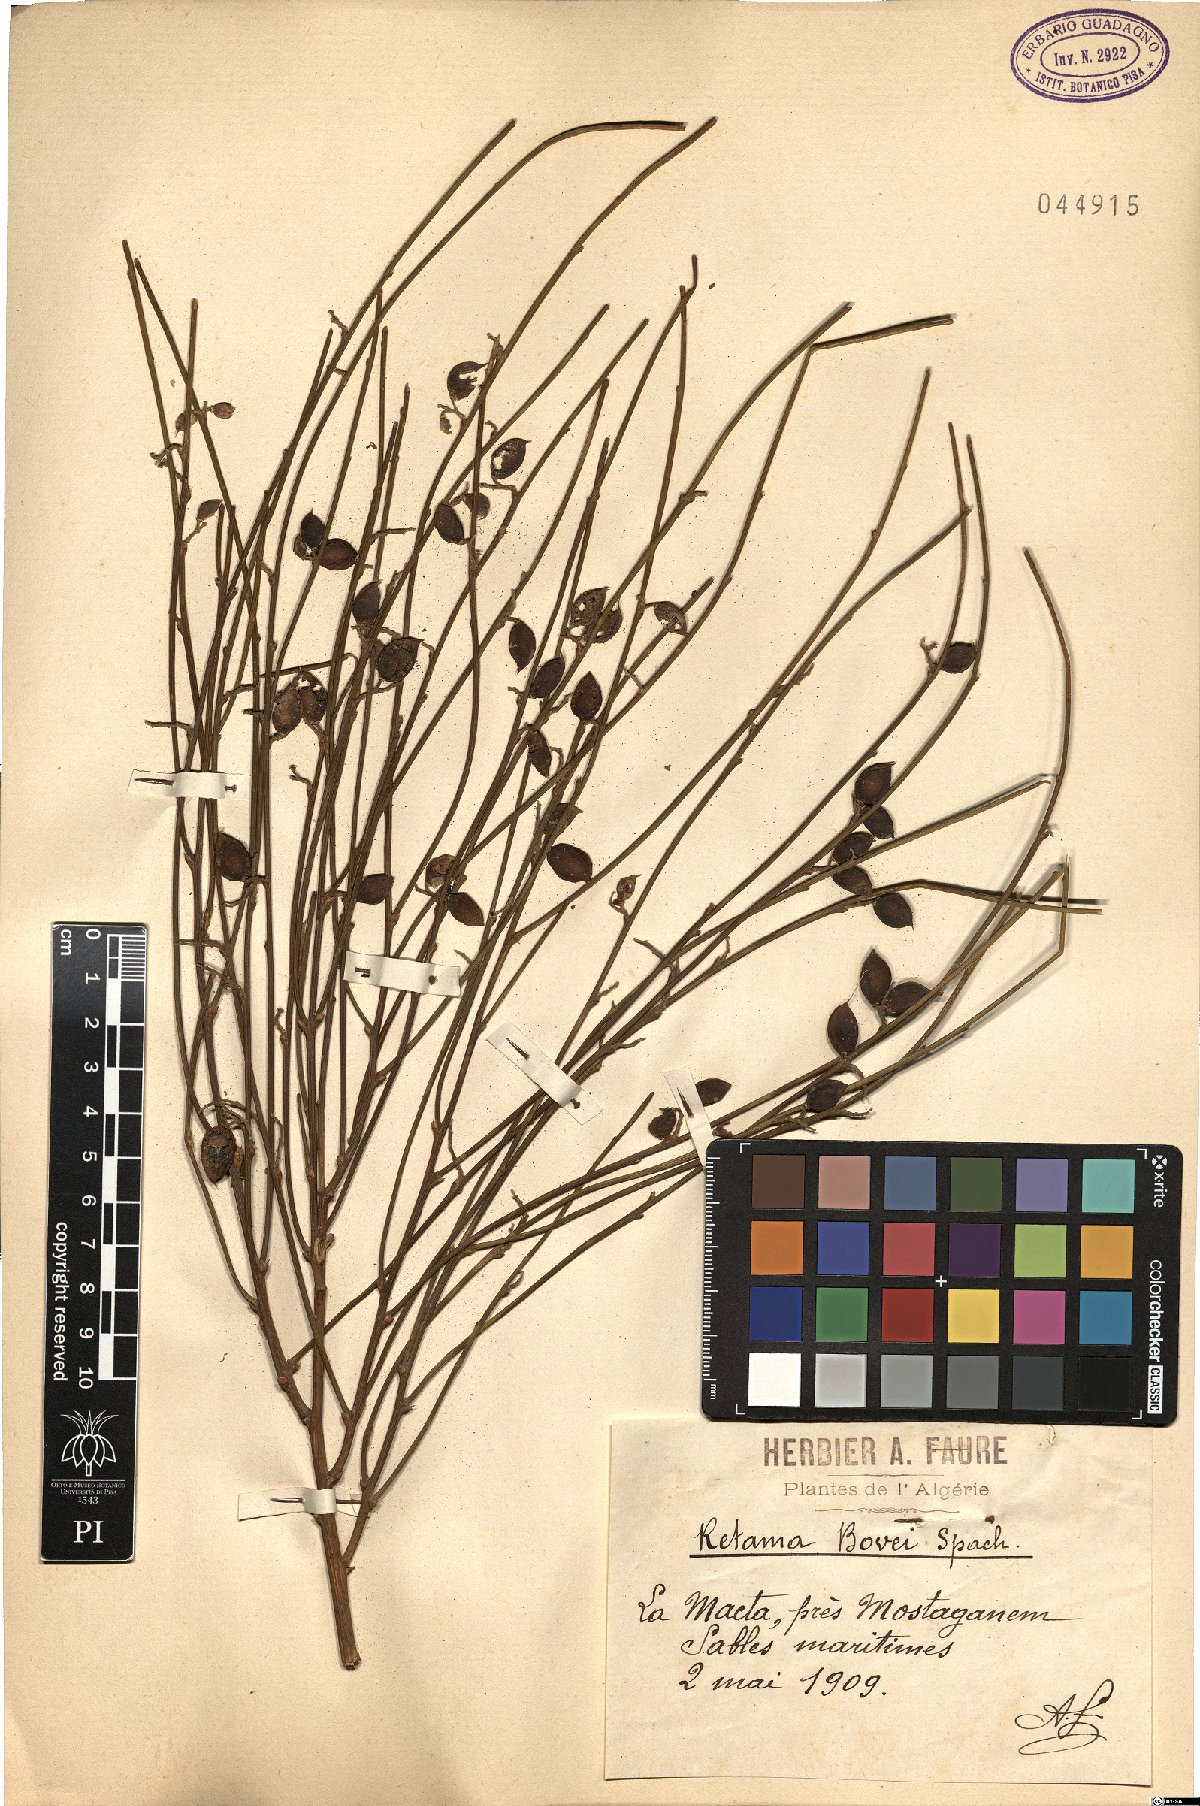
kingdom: Plantae
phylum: Tracheophyta
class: Magnoliopsida
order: Fabales
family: Fabaceae
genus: Retama
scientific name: Retama raetam
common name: Retem
